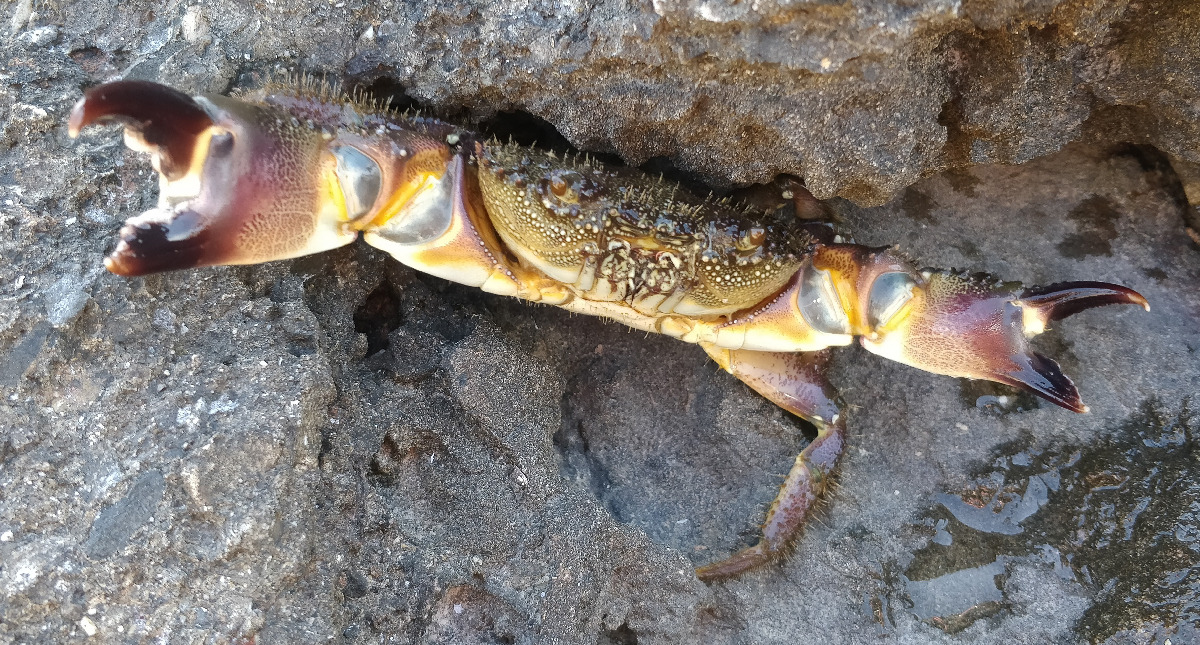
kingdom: Animalia
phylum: Arthropoda
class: Malacostraca
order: Decapoda
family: Eriphiidae
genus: Eriphia
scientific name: Eriphia verrucosa
